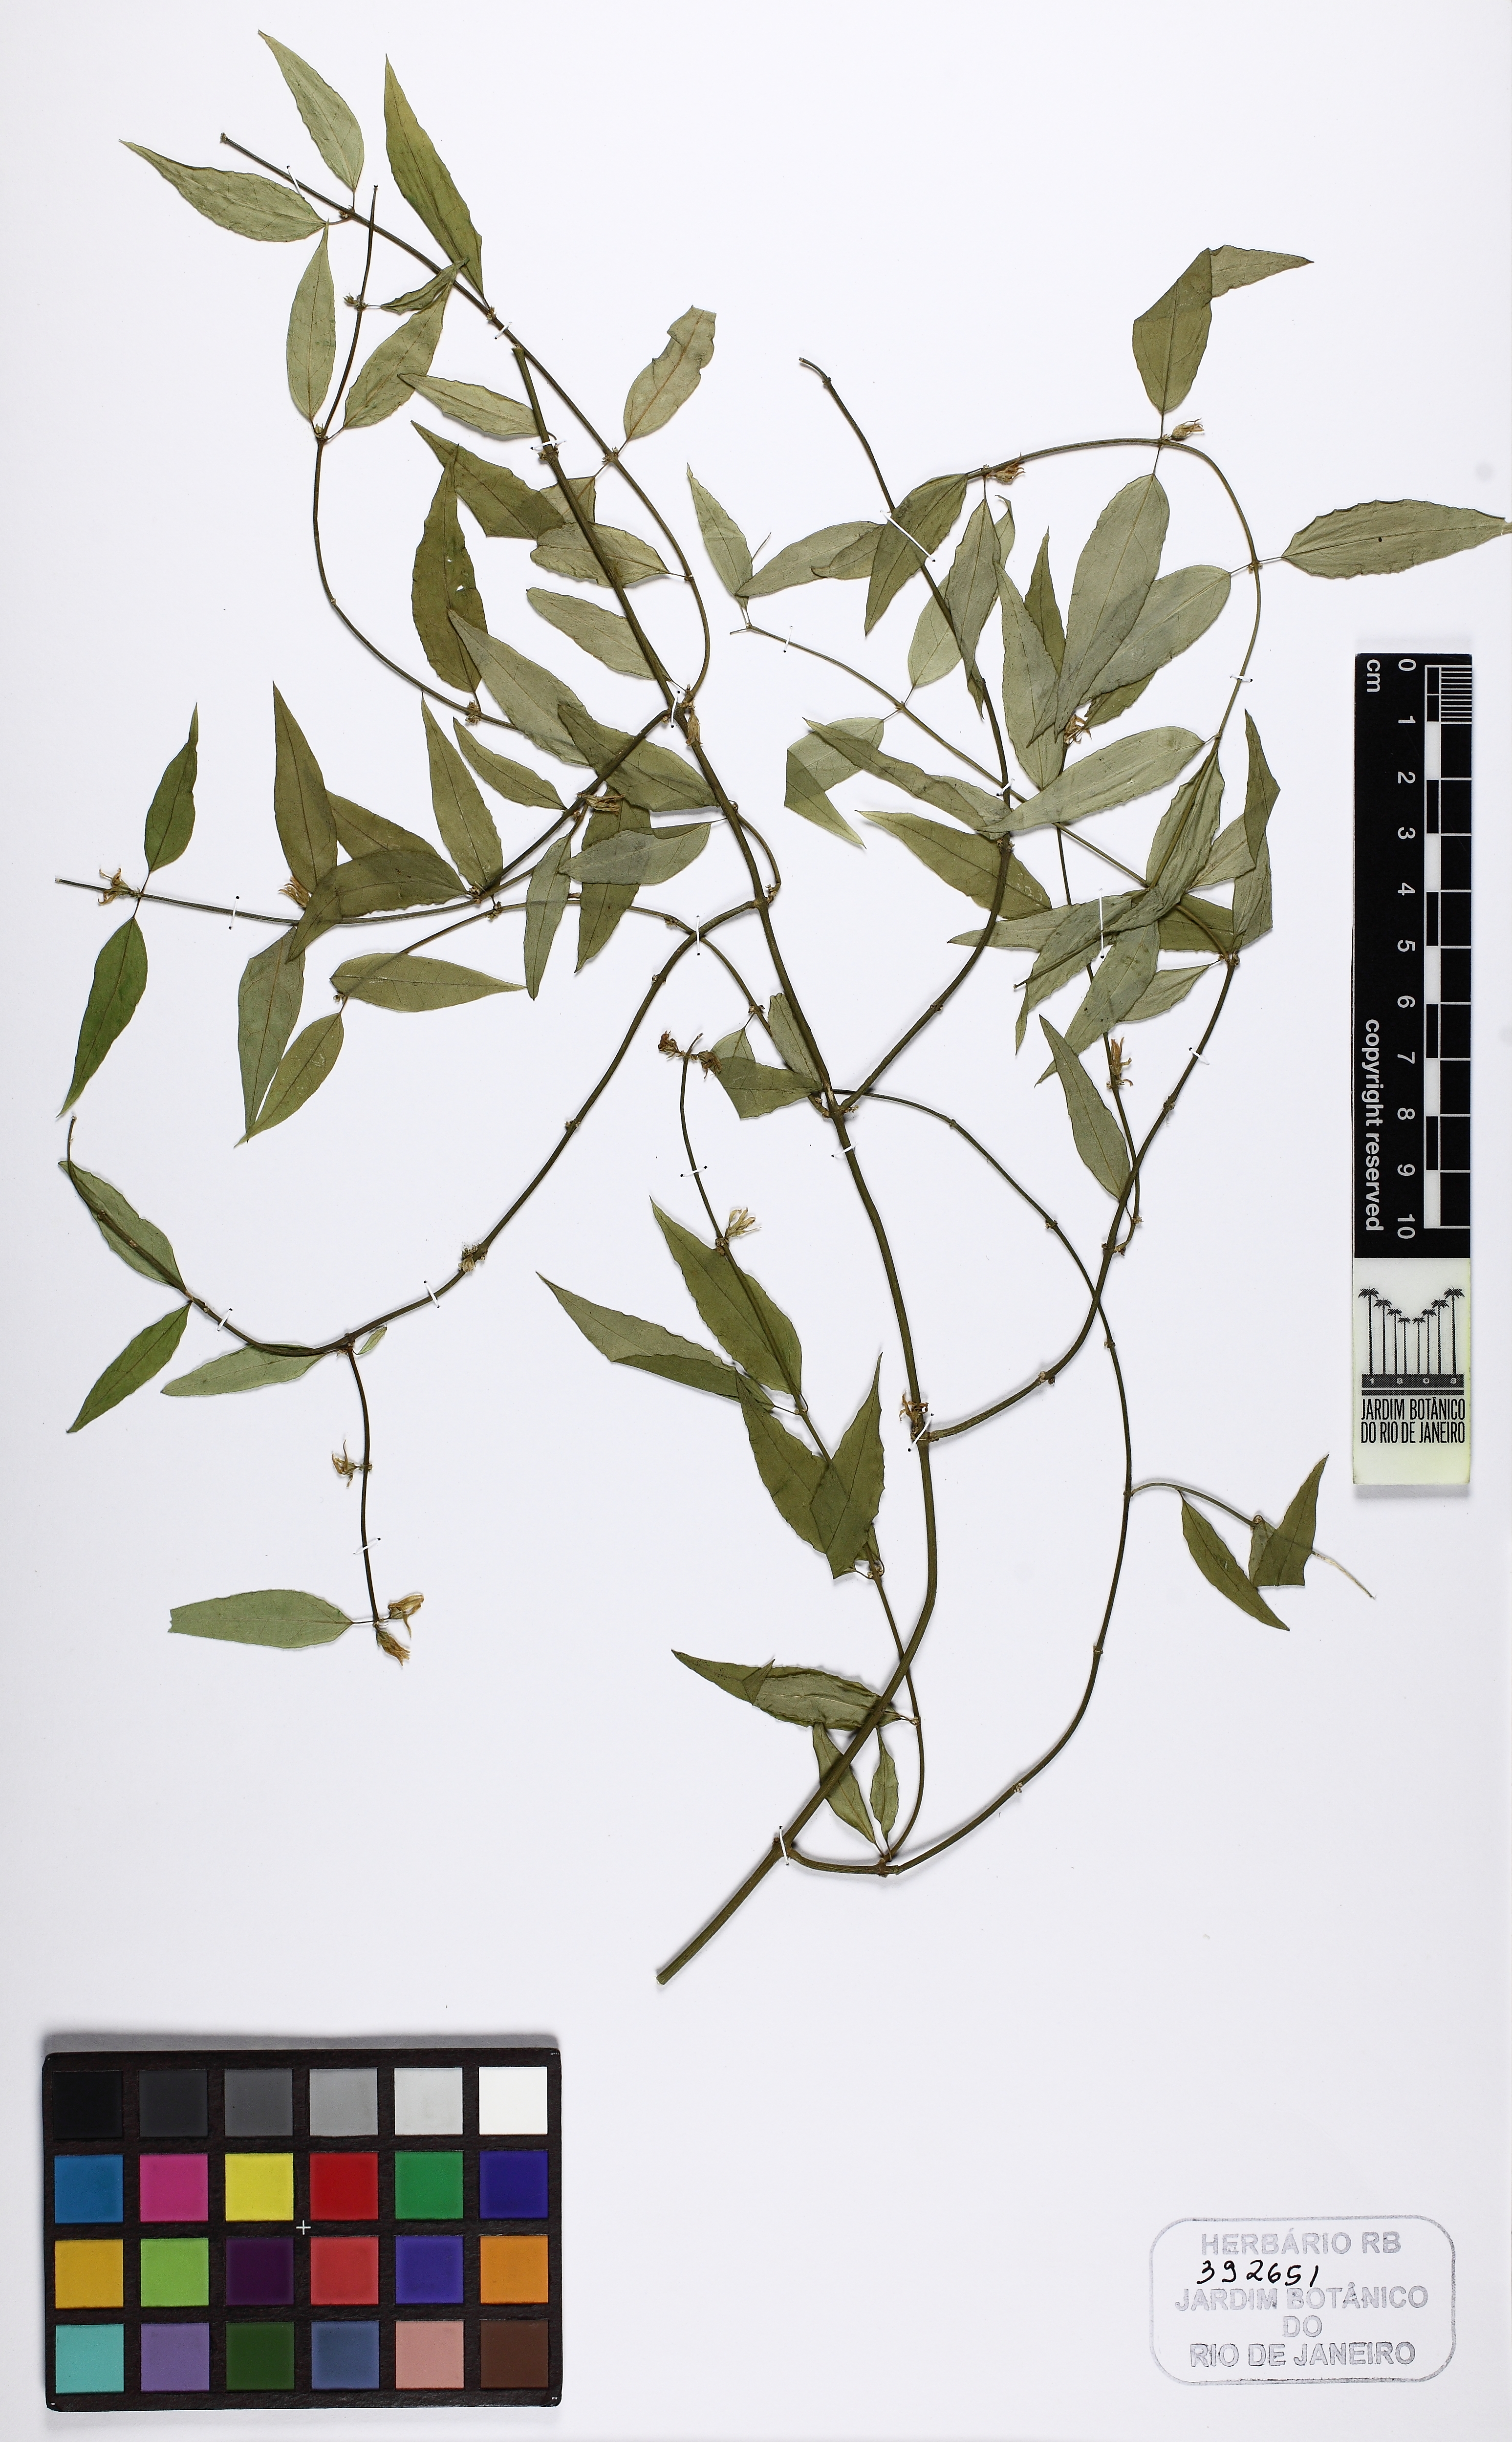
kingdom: Plantae
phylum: Tracheophyta
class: Magnoliopsida
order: Gentianales
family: Apocynaceae
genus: Orthosia
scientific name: Orthosia arenosa
